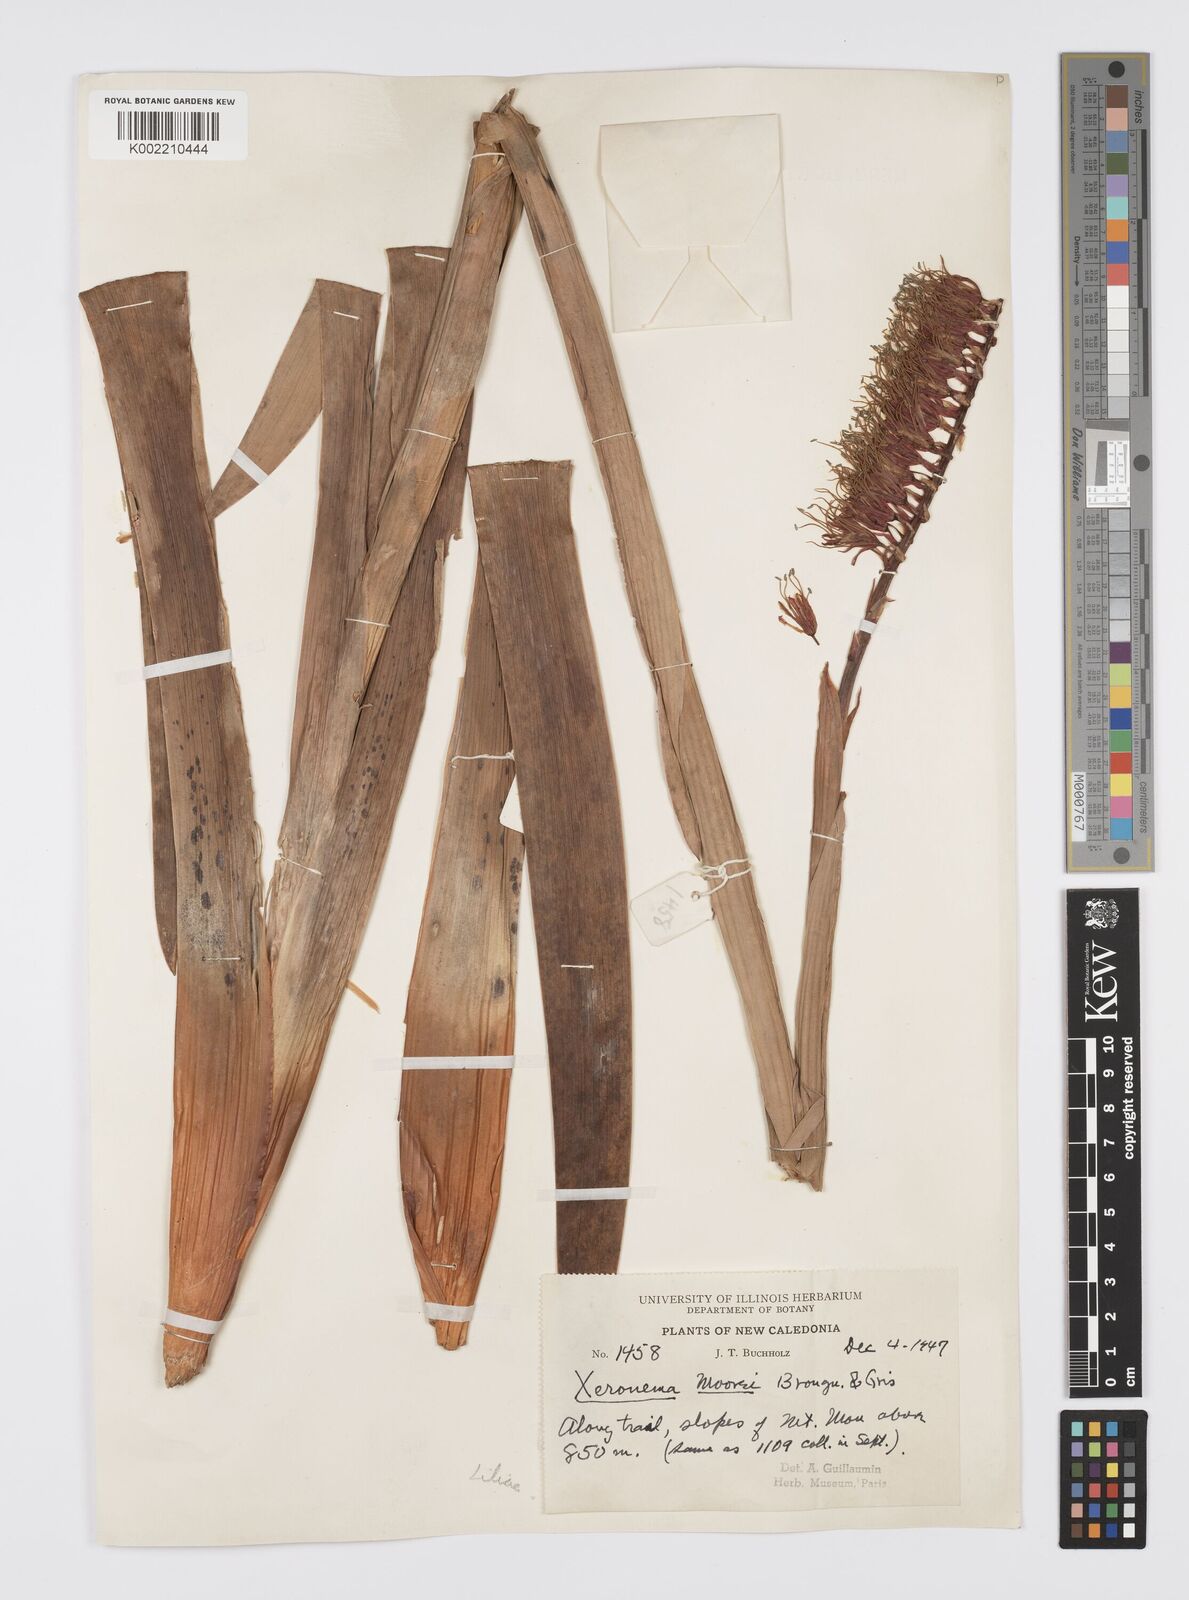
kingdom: Plantae
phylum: Tracheophyta
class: Liliopsida
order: Asparagales
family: Xeronemataceae
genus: Xeronema
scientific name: Xeronema moorei
